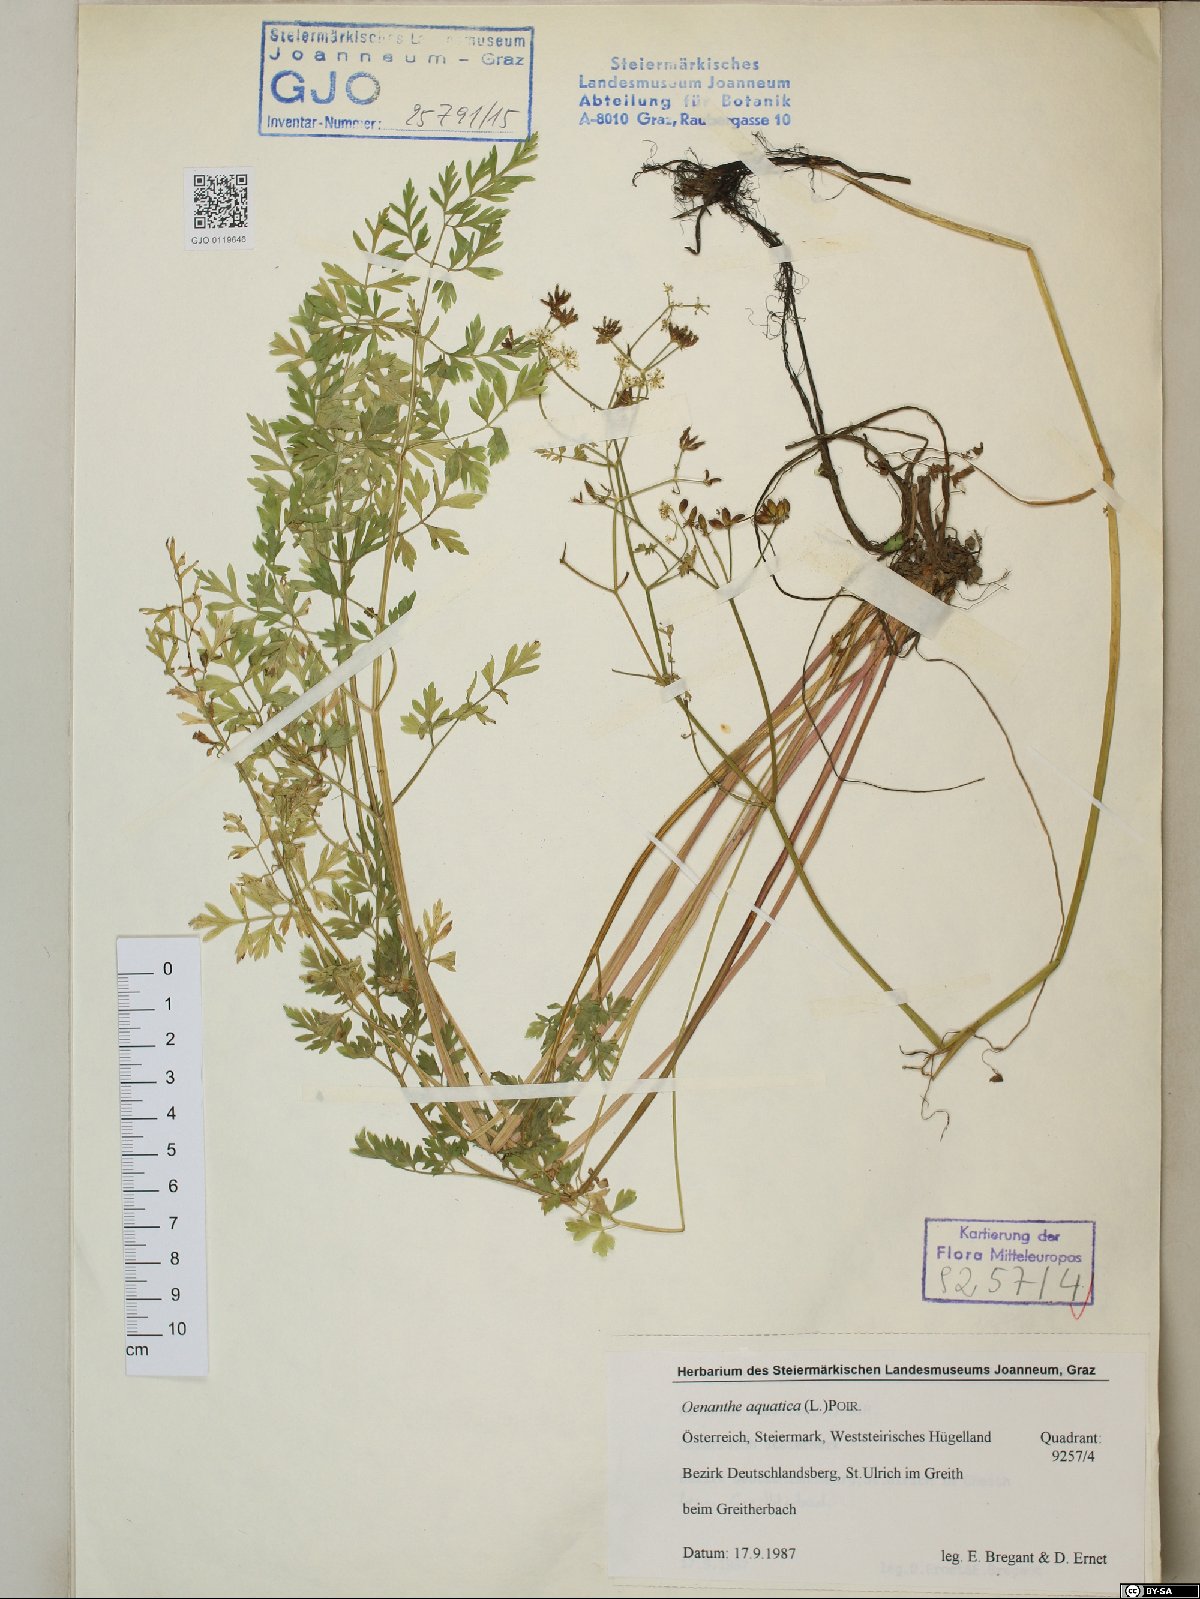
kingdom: Plantae
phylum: Tracheophyta
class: Magnoliopsida
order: Apiales
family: Apiaceae
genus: Oenanthe
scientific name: Oenanthe aquatica
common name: Fine-leaved water-dropwort
